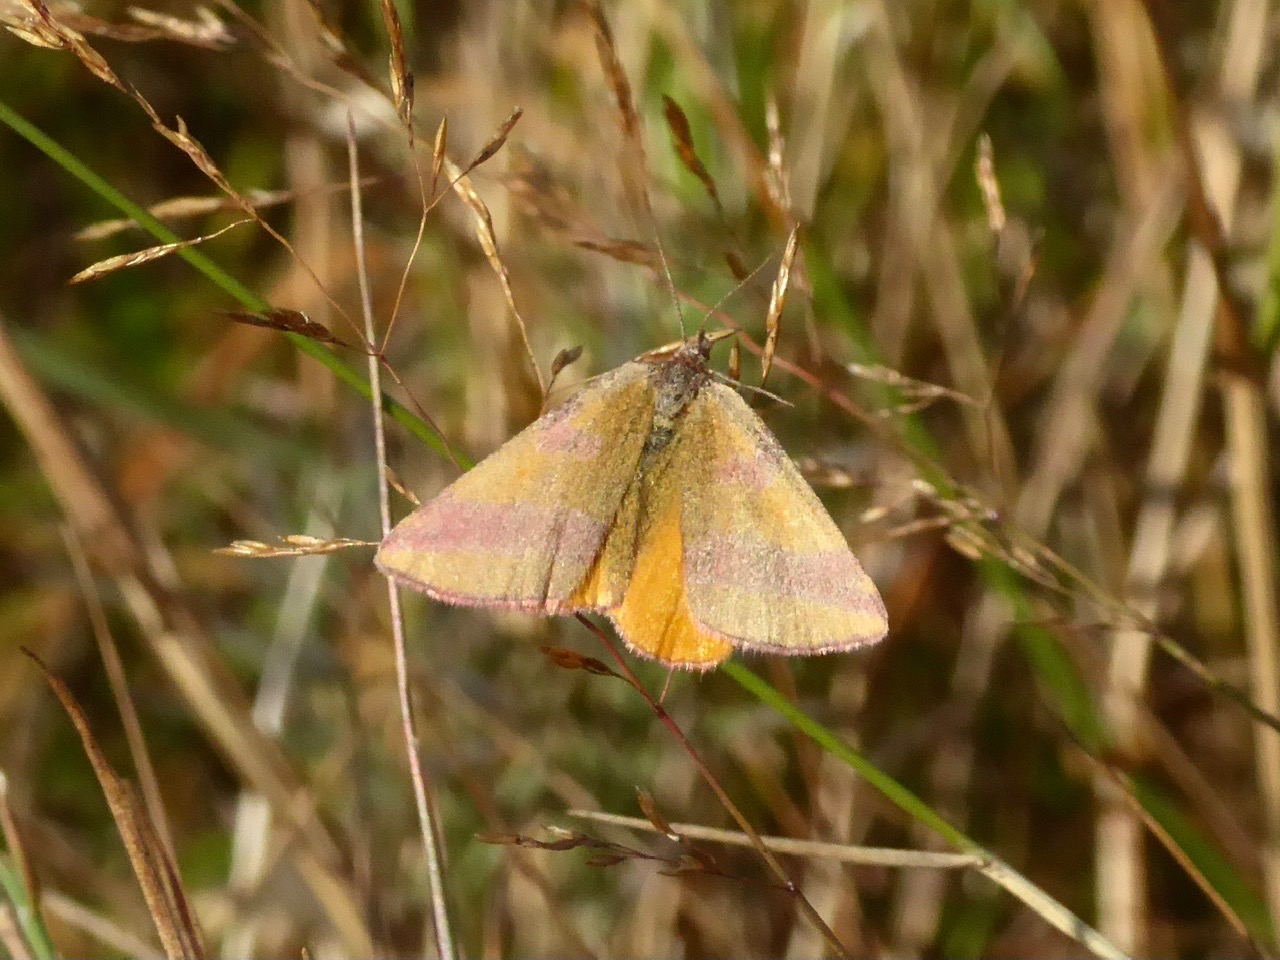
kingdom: Animalia
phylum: Arthropoda
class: Insecta
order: Lepidoptera
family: Geometridae
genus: Lythria
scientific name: Lythria cruentaria
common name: Purpurmåler
